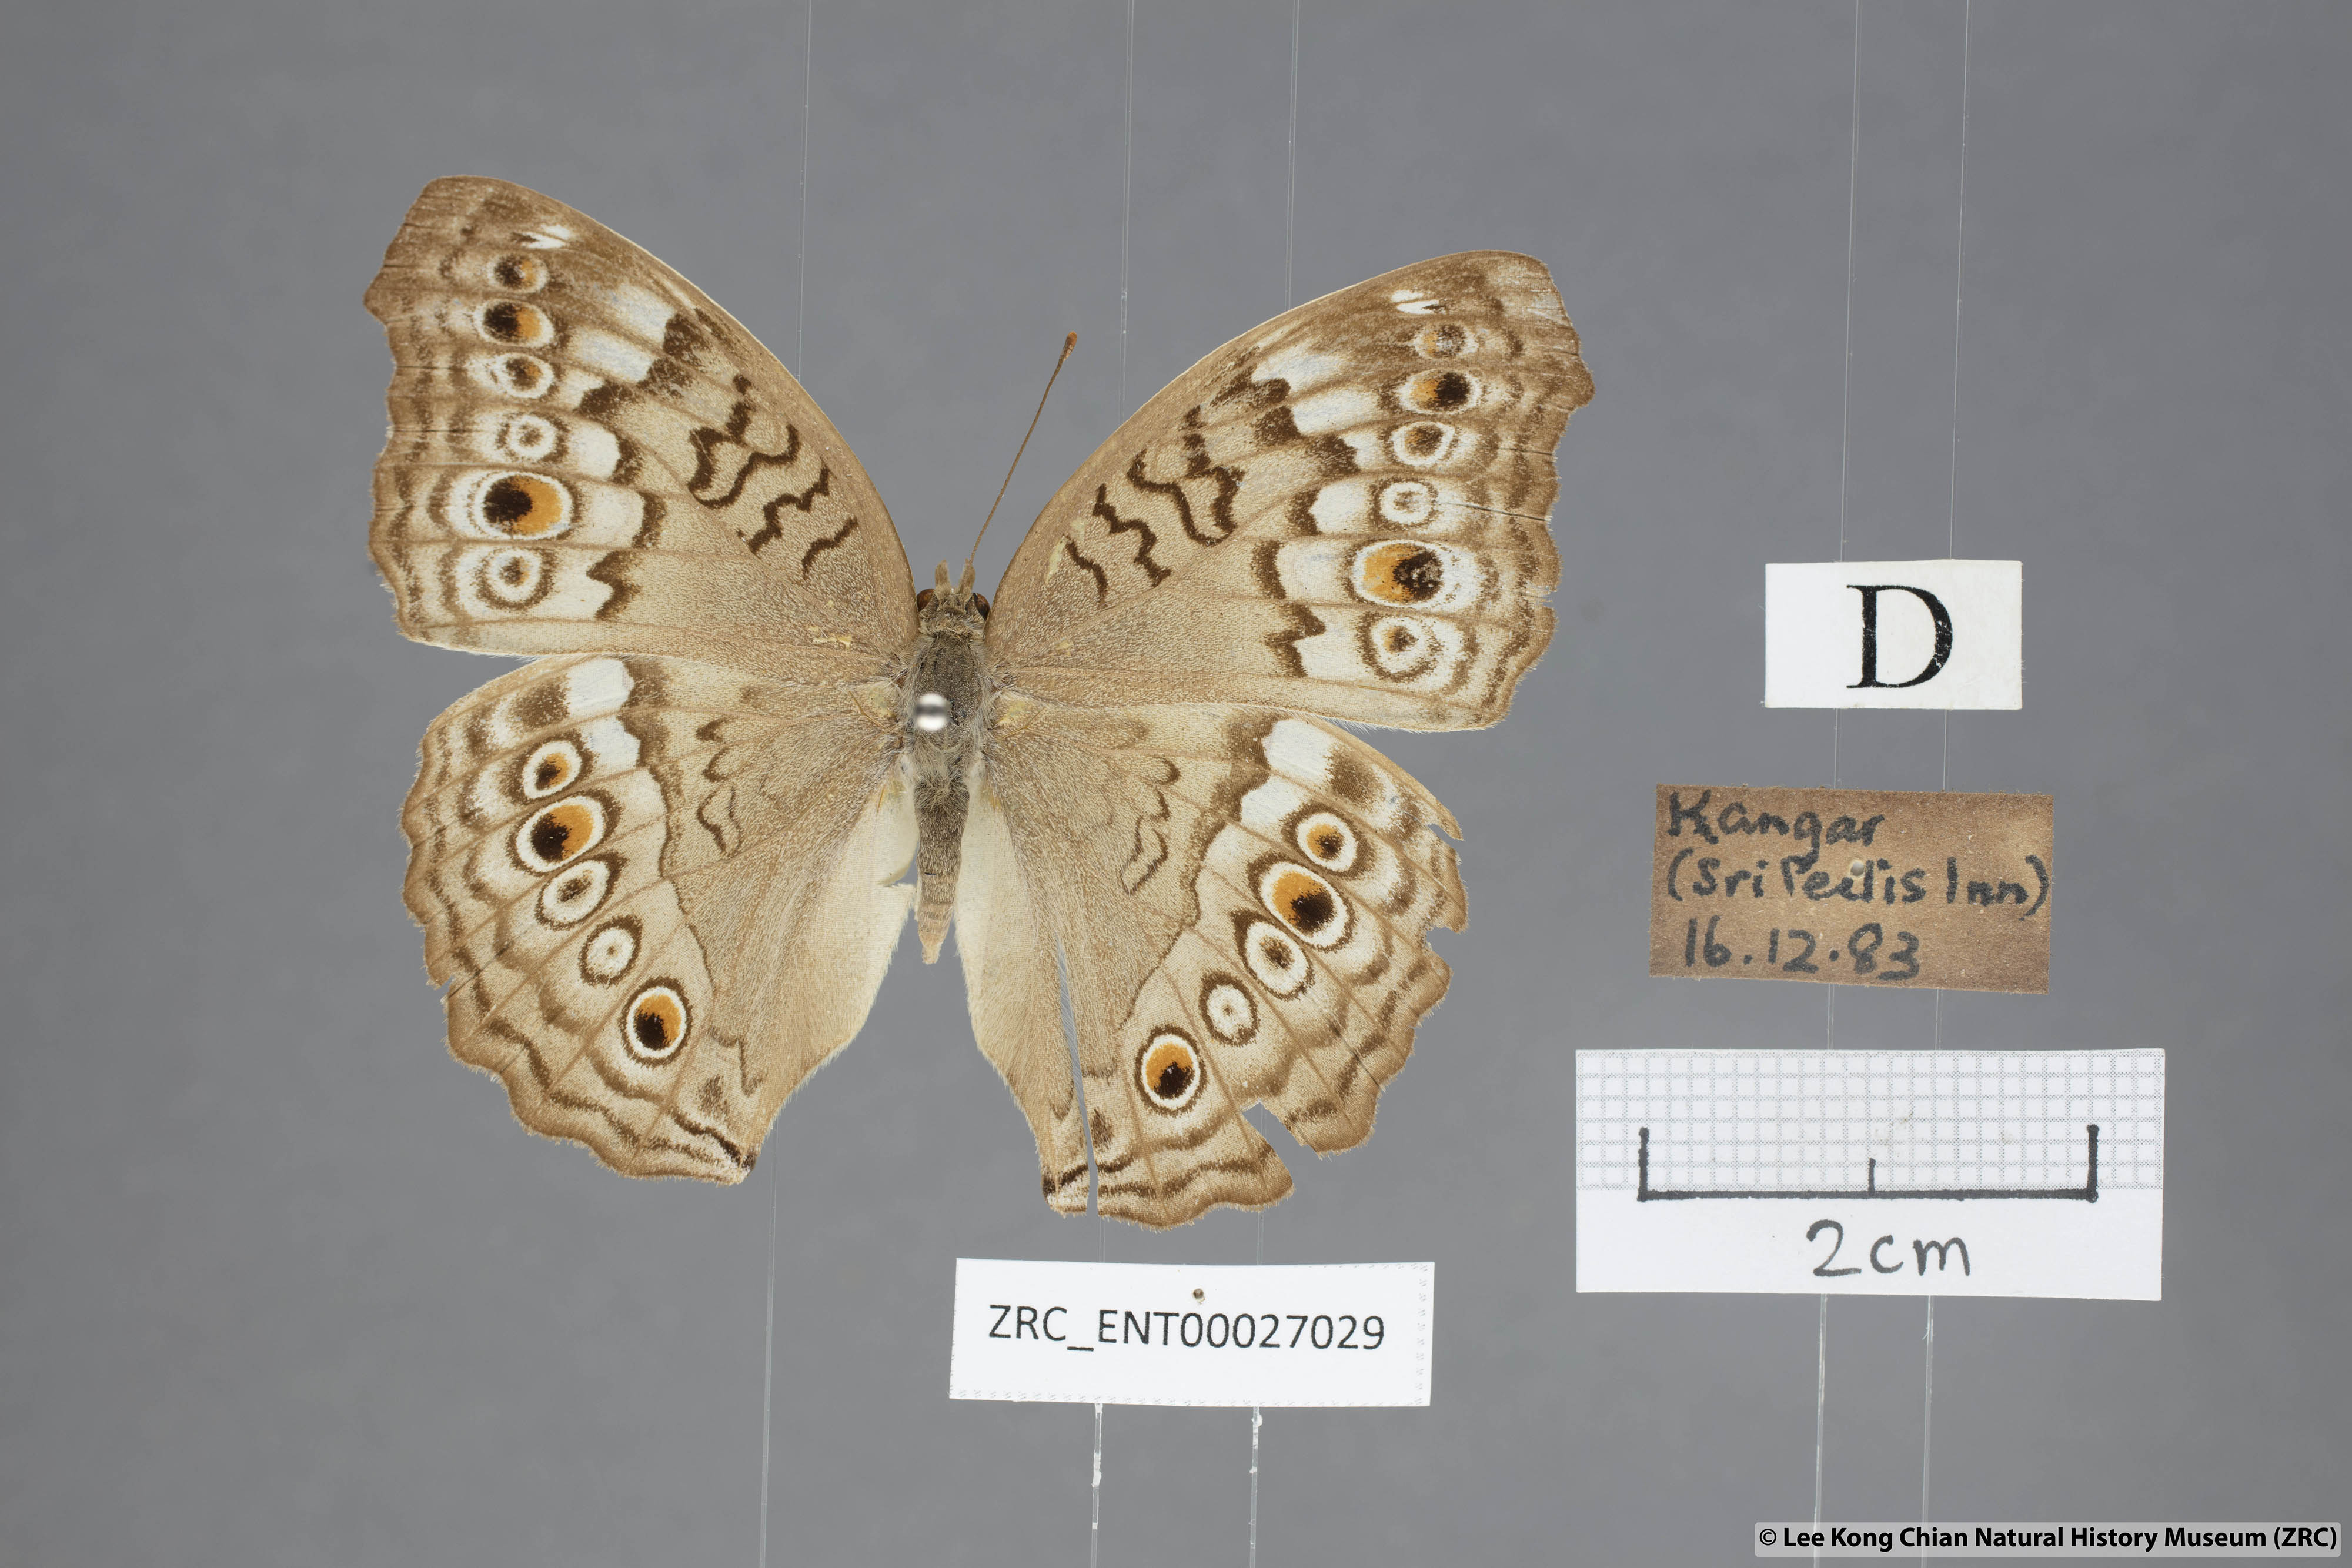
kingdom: Animalia
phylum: Arthropoda
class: Insecta
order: Lepidoptera
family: Nymphalidae
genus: Junonia
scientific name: Junonia atlites
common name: Grey pansy
